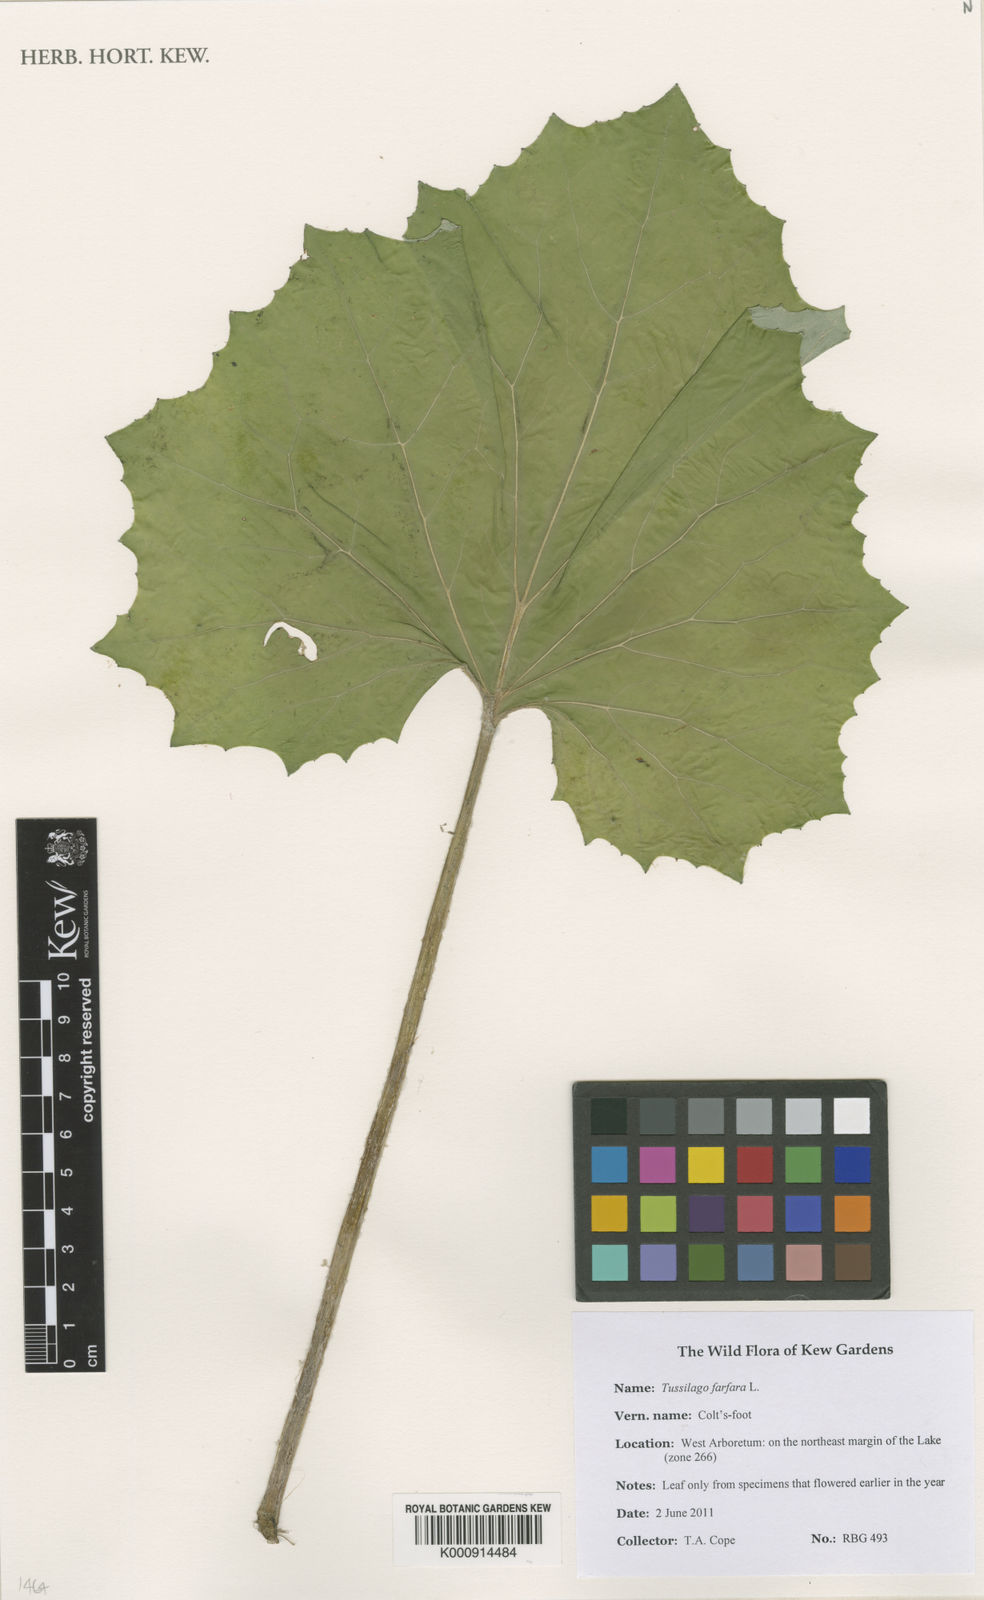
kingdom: Plantae
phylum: Tracheophyta
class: Magnoliopsida
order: Asterales
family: Asteraceae
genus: Tussilago
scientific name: Tussilago farfara
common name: Coltsfoot
